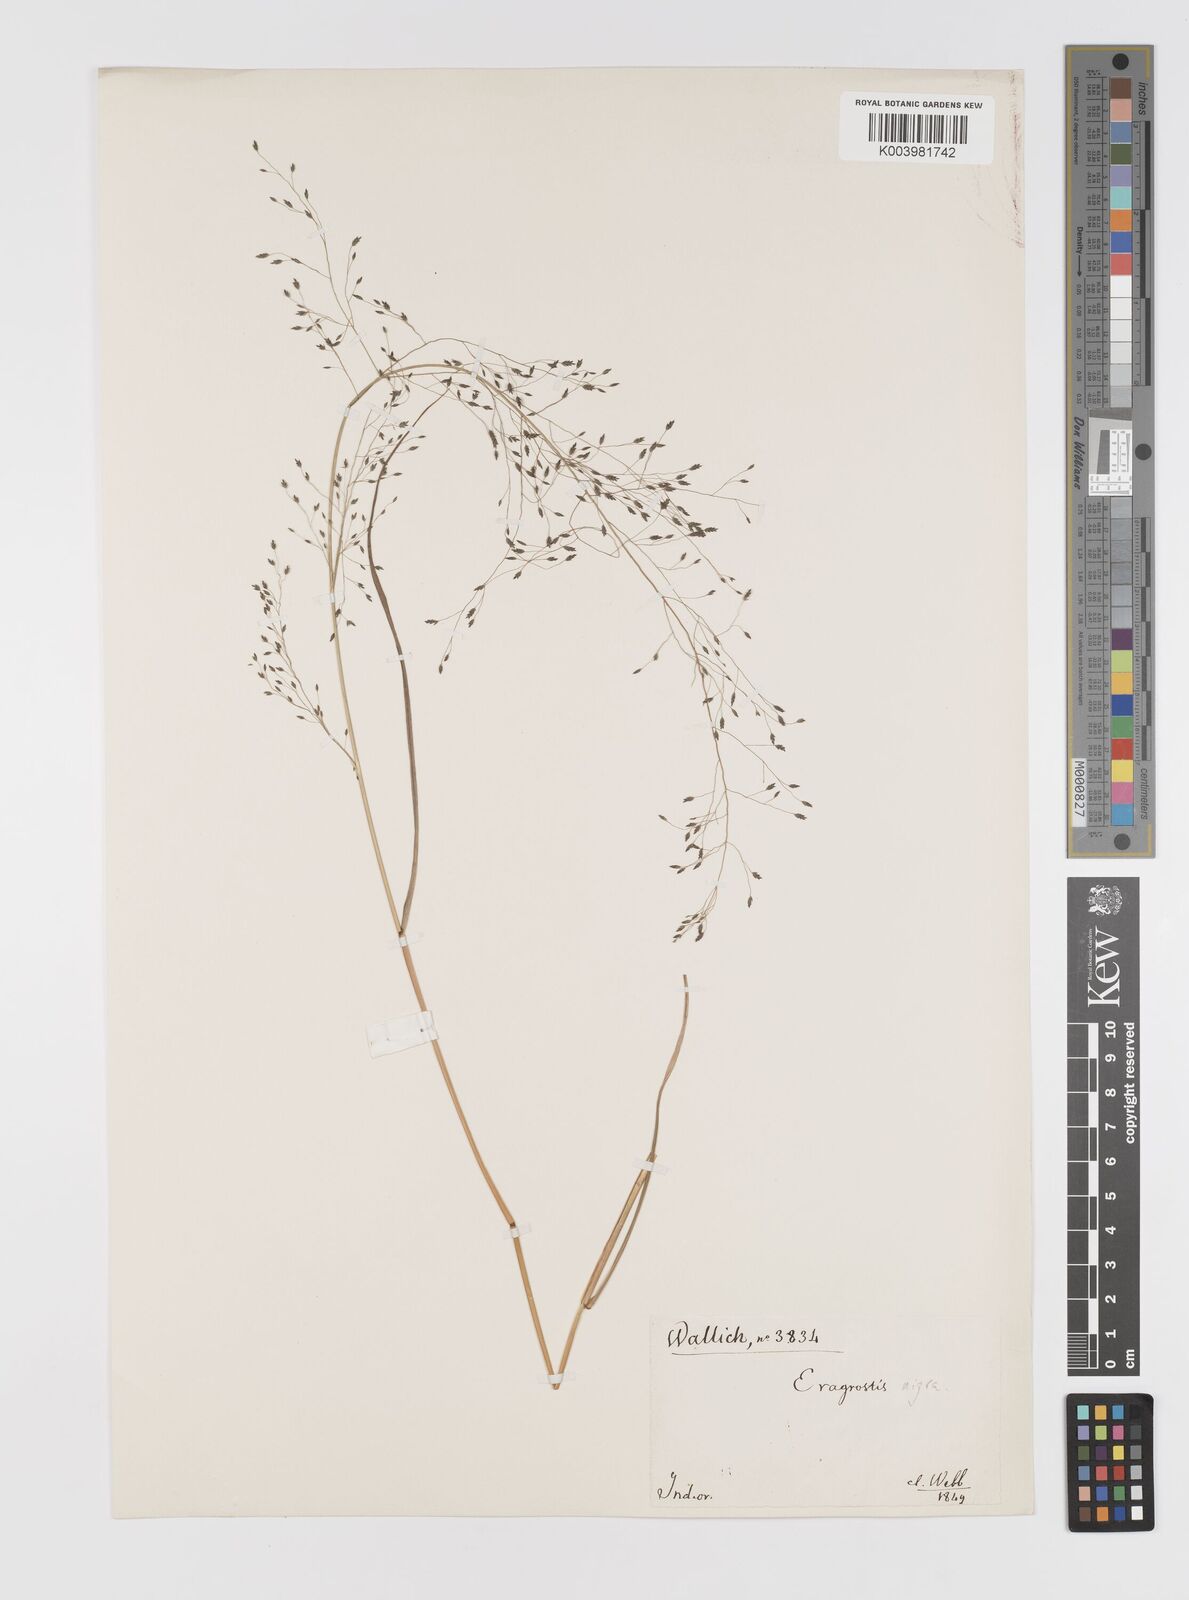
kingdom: Plantae
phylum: Tracheophyta
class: Liliopsida
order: Poales
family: Poaceae
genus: Eragrostis
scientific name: Eragrostis nigra
